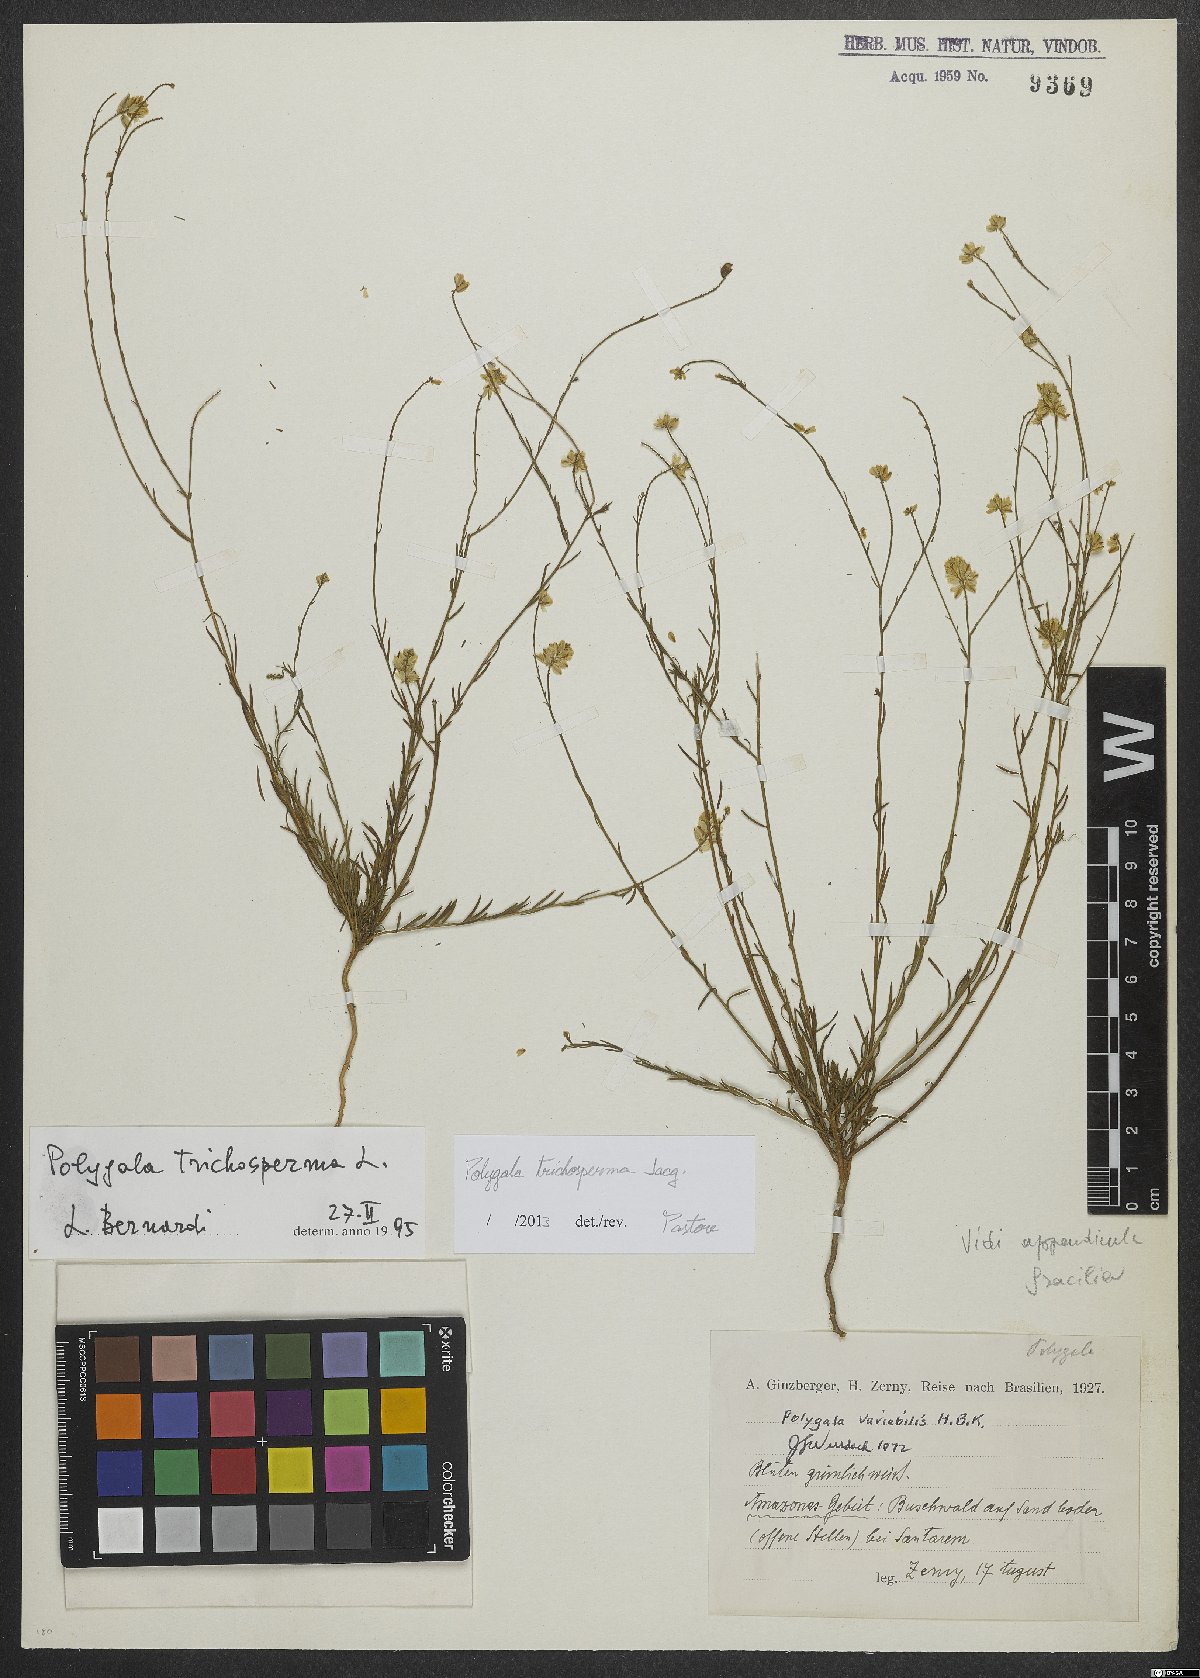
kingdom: Plantae
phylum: Tracheophyta
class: Magnoliopsida
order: Fabales
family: Polygalaceae
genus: Polygala
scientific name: Polygala trichosperma
